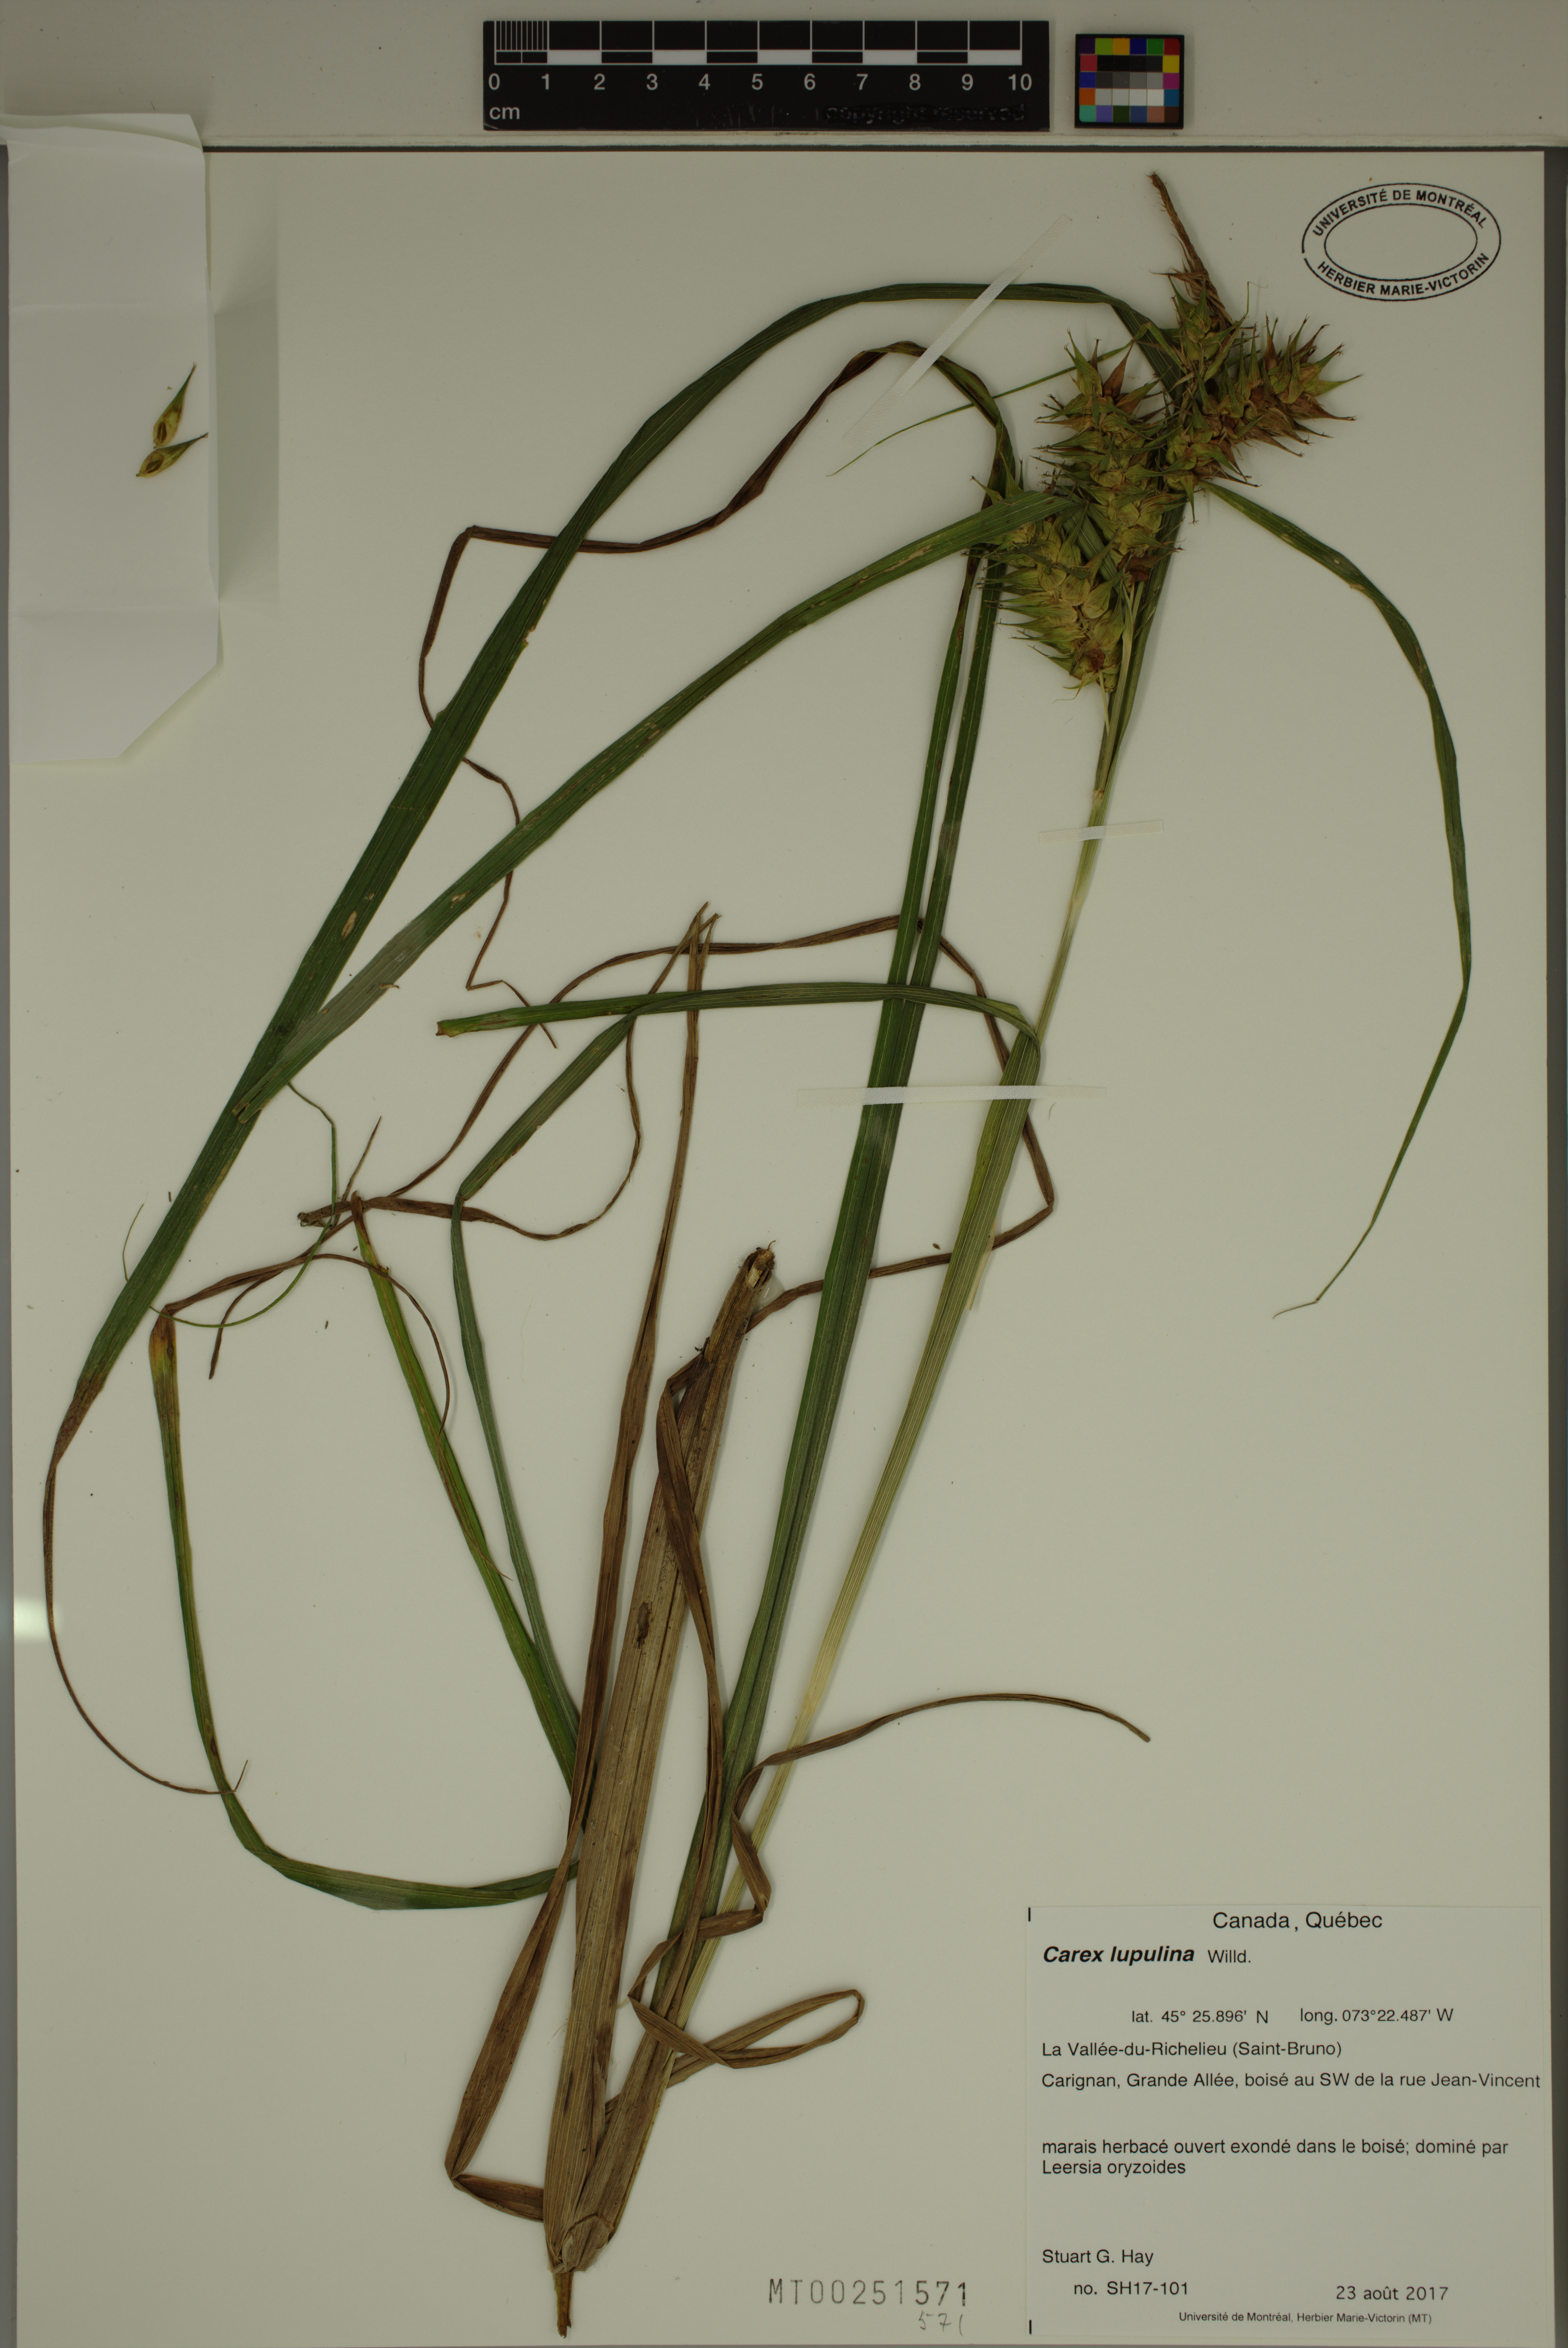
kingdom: Plantae
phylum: Tracheophyta
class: Liliopsida
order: Poales
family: Cyperaceae
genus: Carex
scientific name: Carex lupulina
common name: Hop sedge
